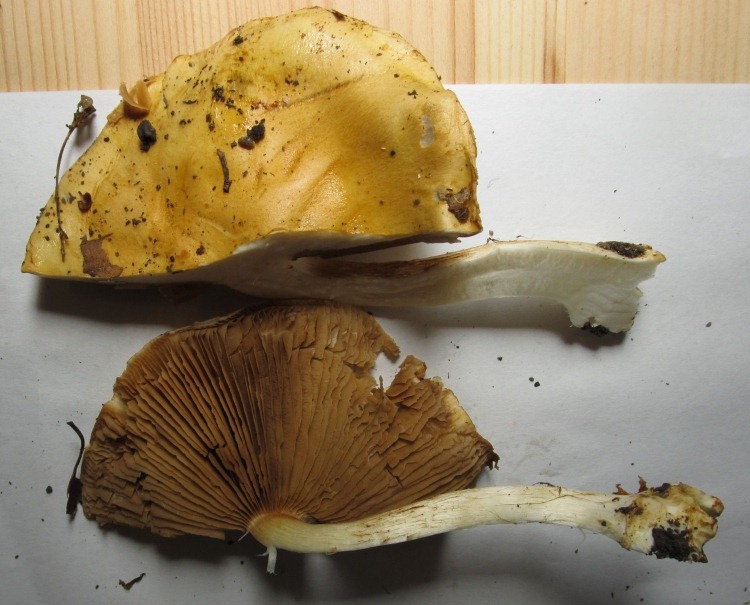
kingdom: Fungi
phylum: Basidiomycota
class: Agaricomycetes
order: Agaricales
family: Cortinariaceae
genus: Phlegmacium
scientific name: Phlegmacium rhizophorum
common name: finkornet slørhat
